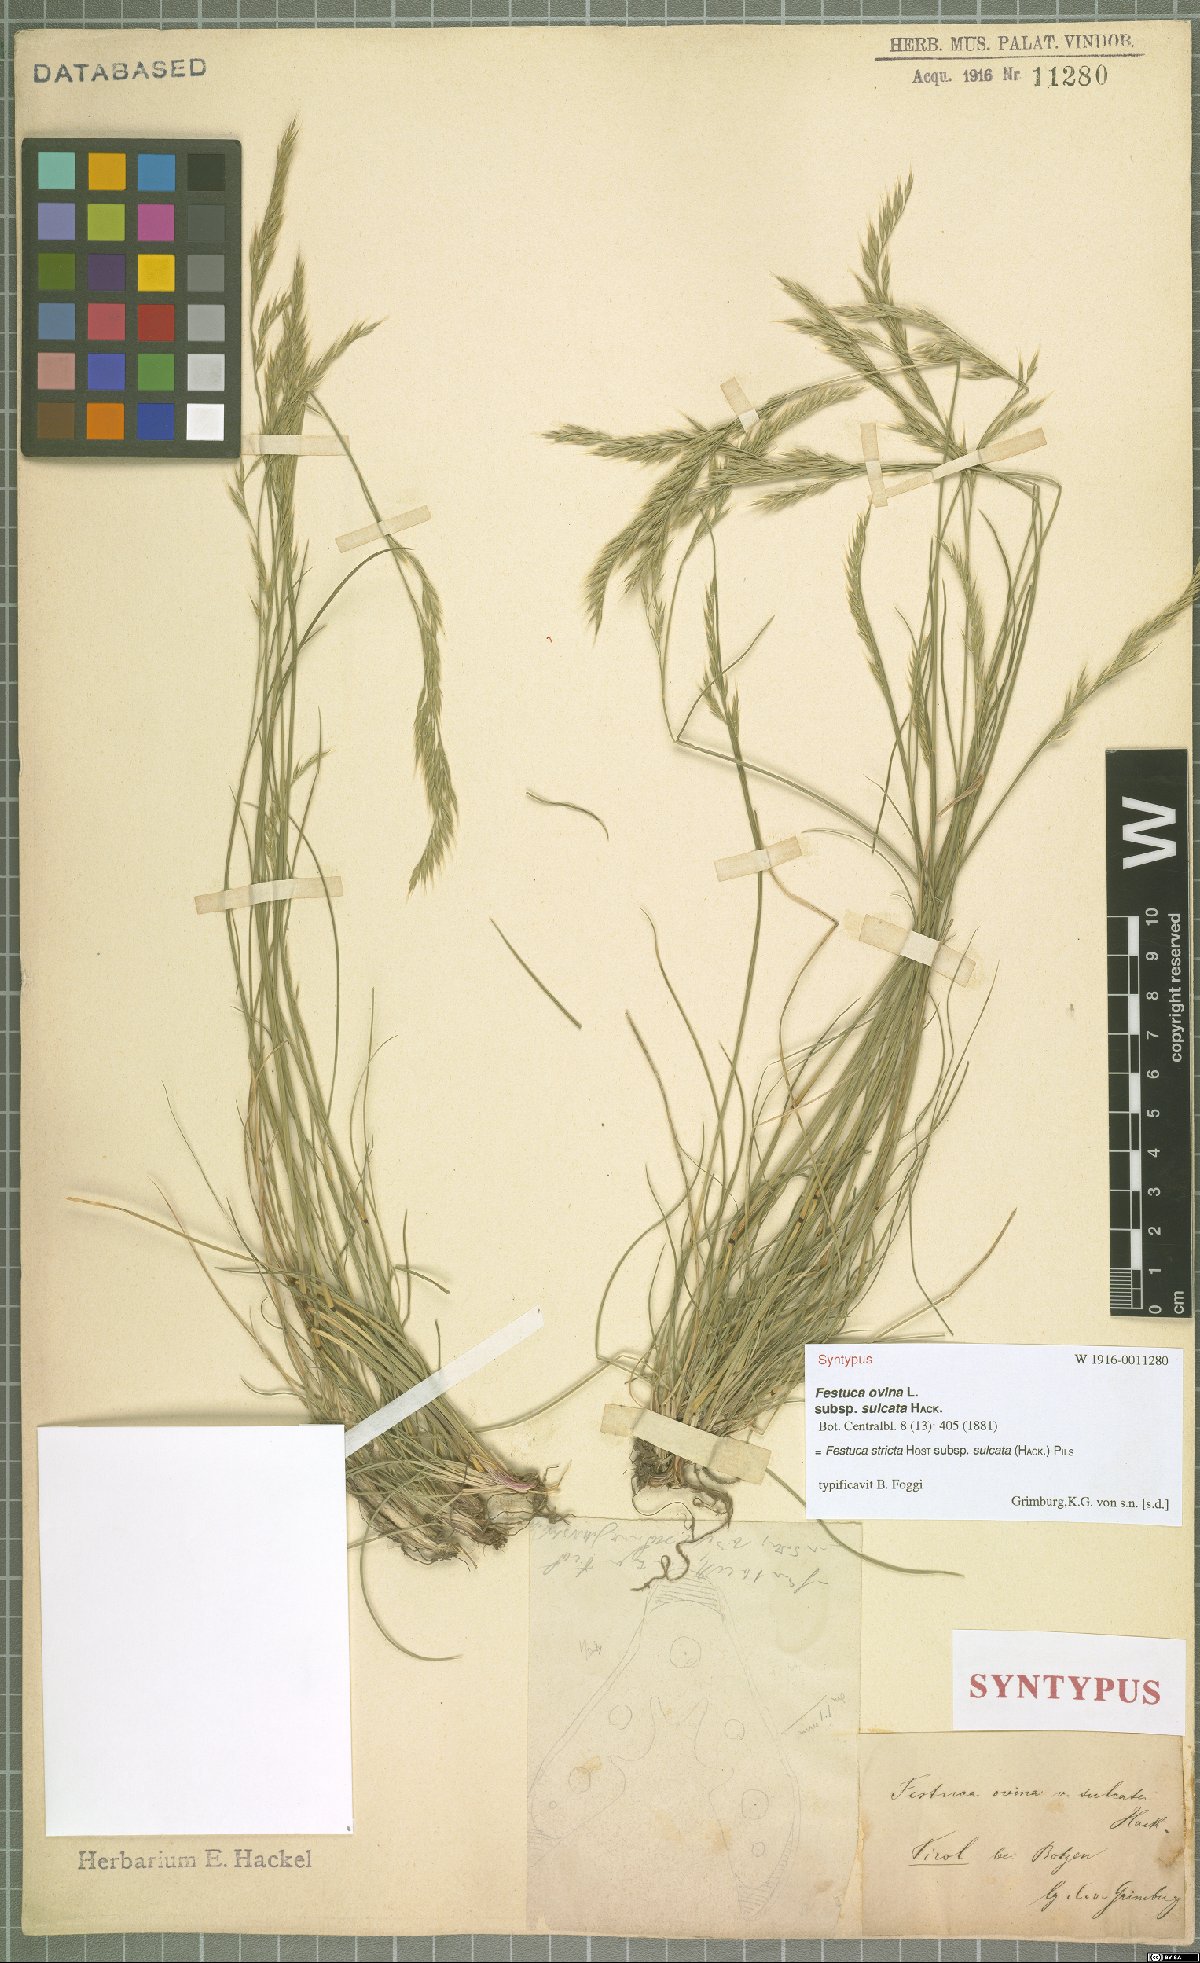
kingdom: Plantae
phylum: Tracheophyta
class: Liliopsida
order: Poales
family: Poaceae
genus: Festuca
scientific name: Festuca rupicola
